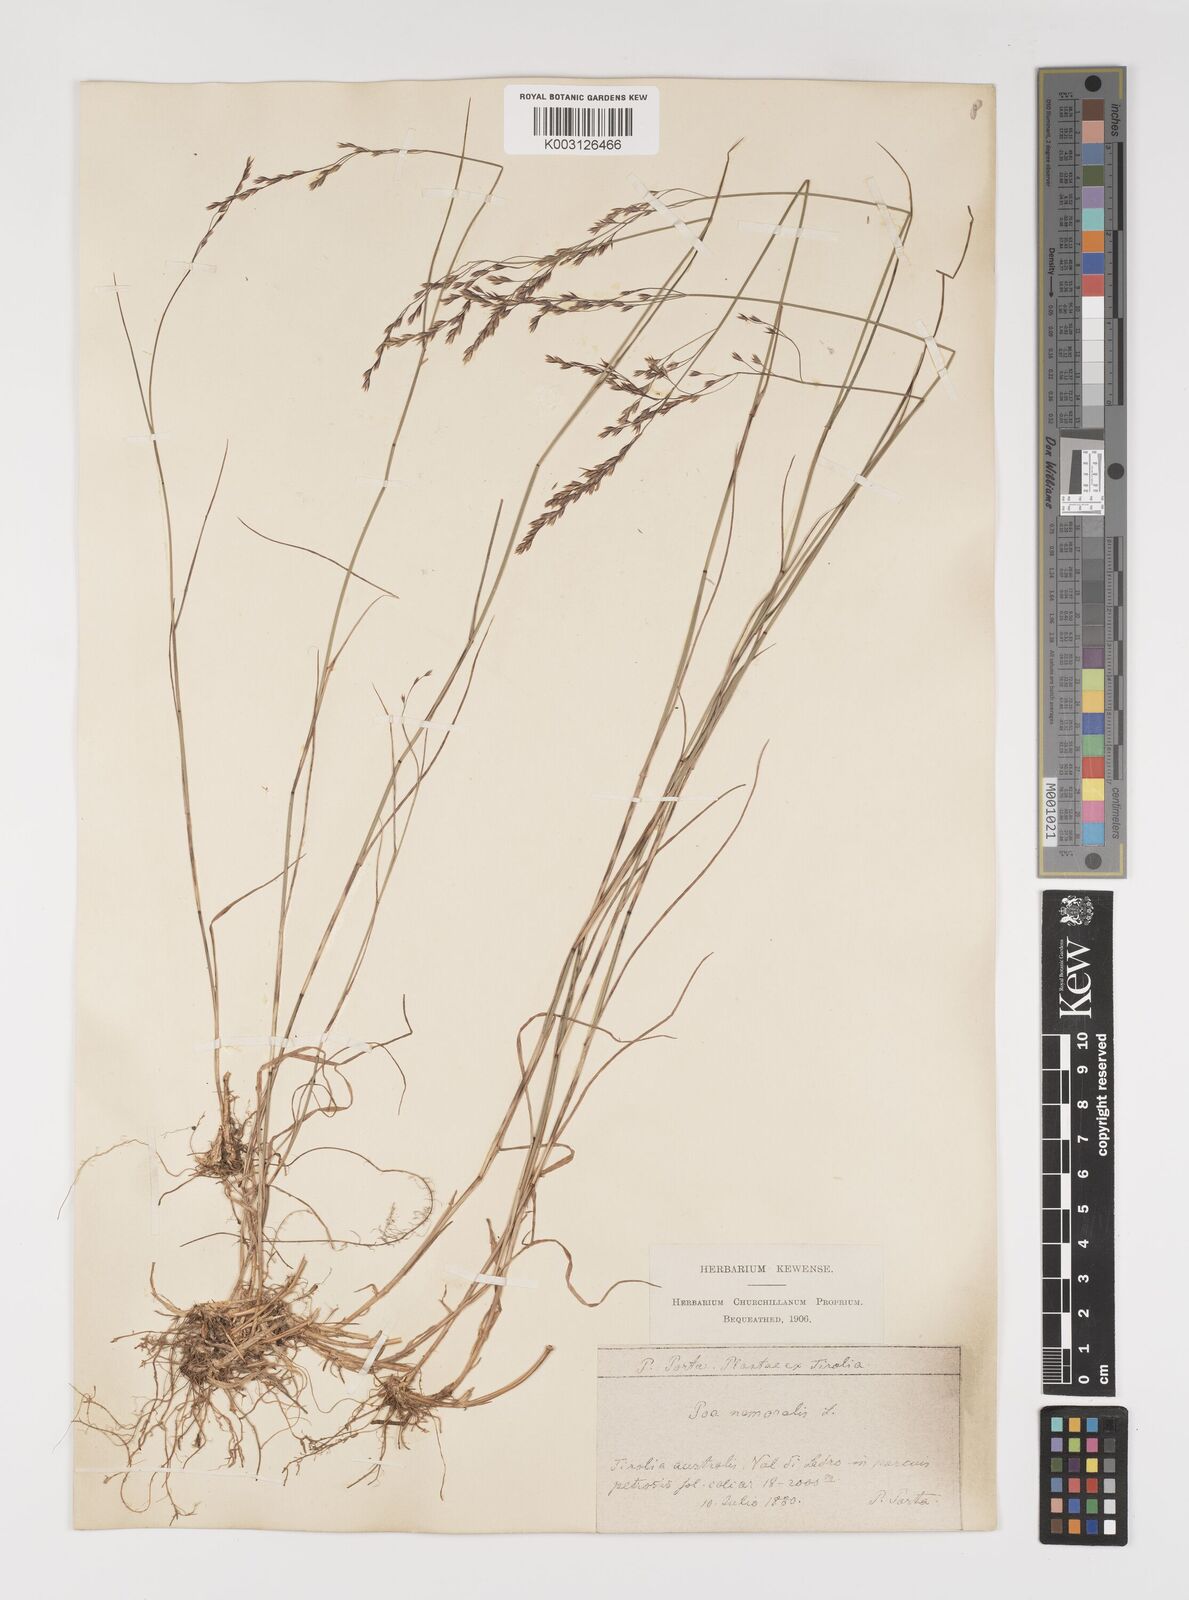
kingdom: Plantae
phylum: Tracheophyta
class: Liliopsida
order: Poales
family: Poaceae
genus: Poa
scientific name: Poa nemoralis
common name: Wood bluegrass
